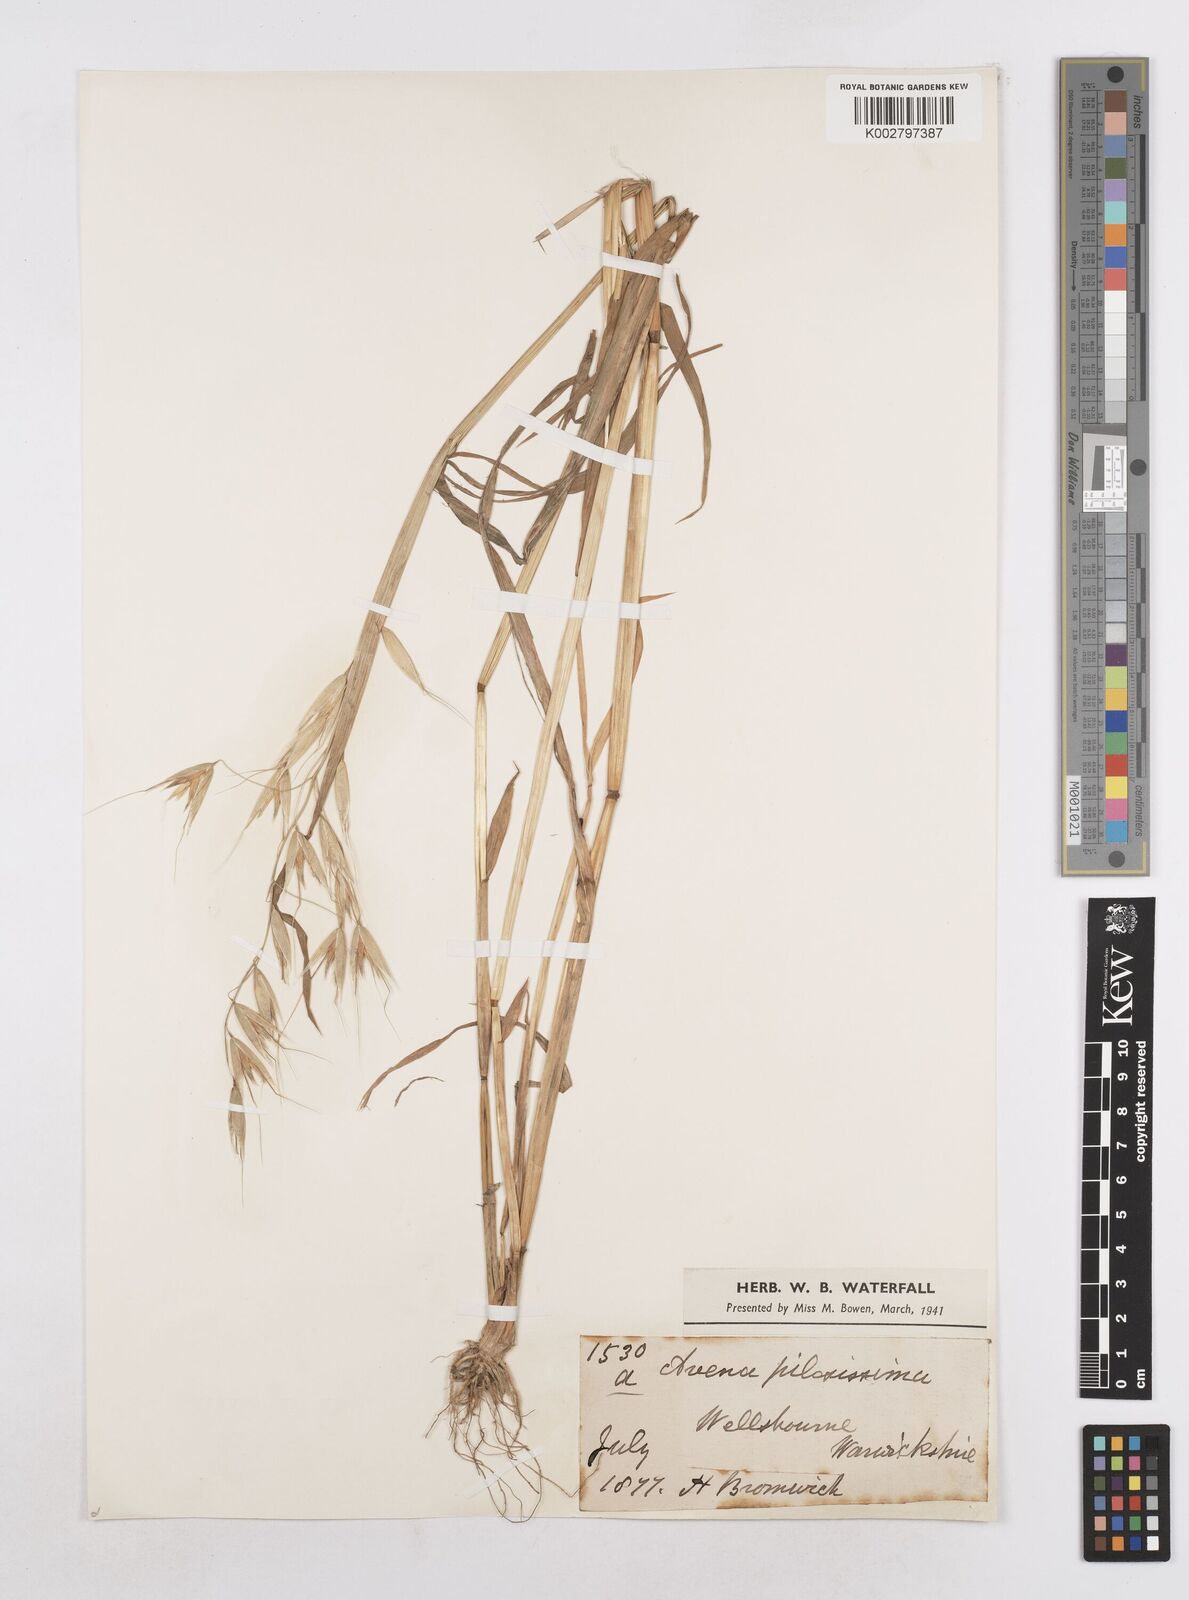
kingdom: Plantae
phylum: Tracheophyta
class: Liliopsida
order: Poales
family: Poaceae
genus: Avena
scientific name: Avena fatua
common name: Wild oat
